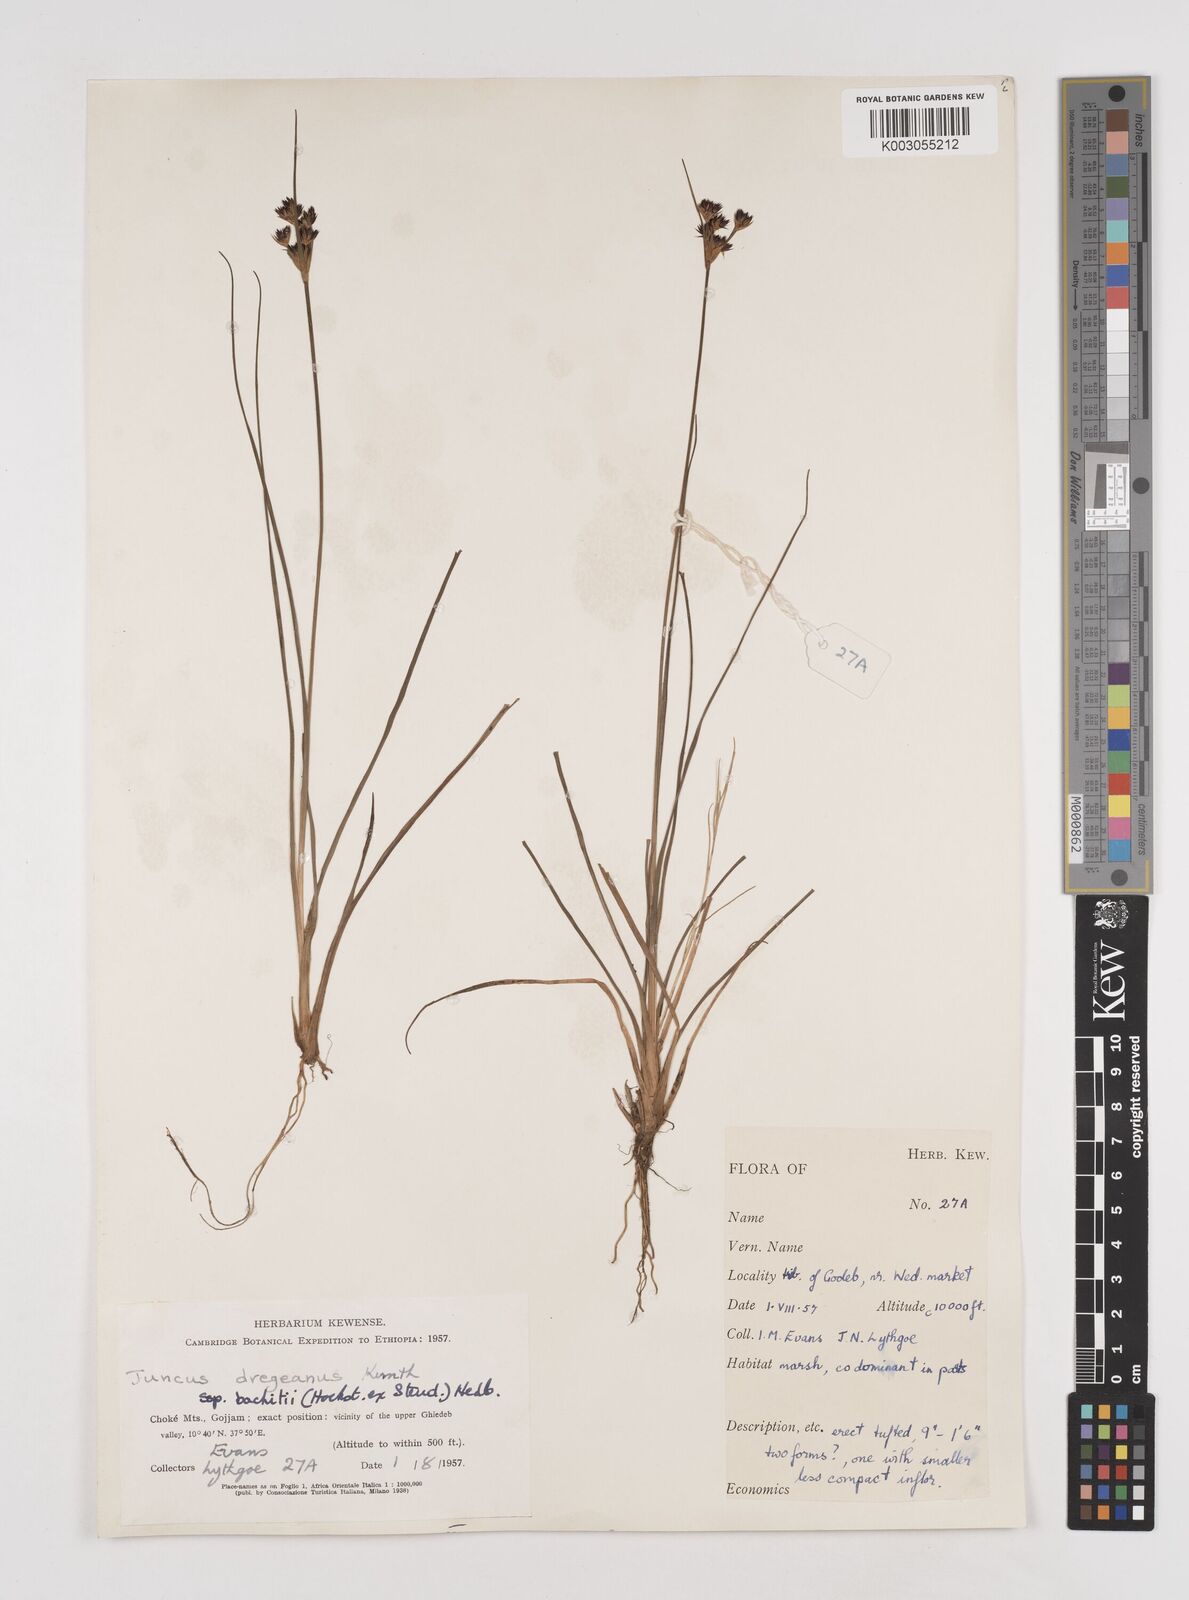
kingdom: Plantae
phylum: Tracheophyta
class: Liliopsida
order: Poales
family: Juncaceae
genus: Juncus
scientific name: Juncus dregeanus
